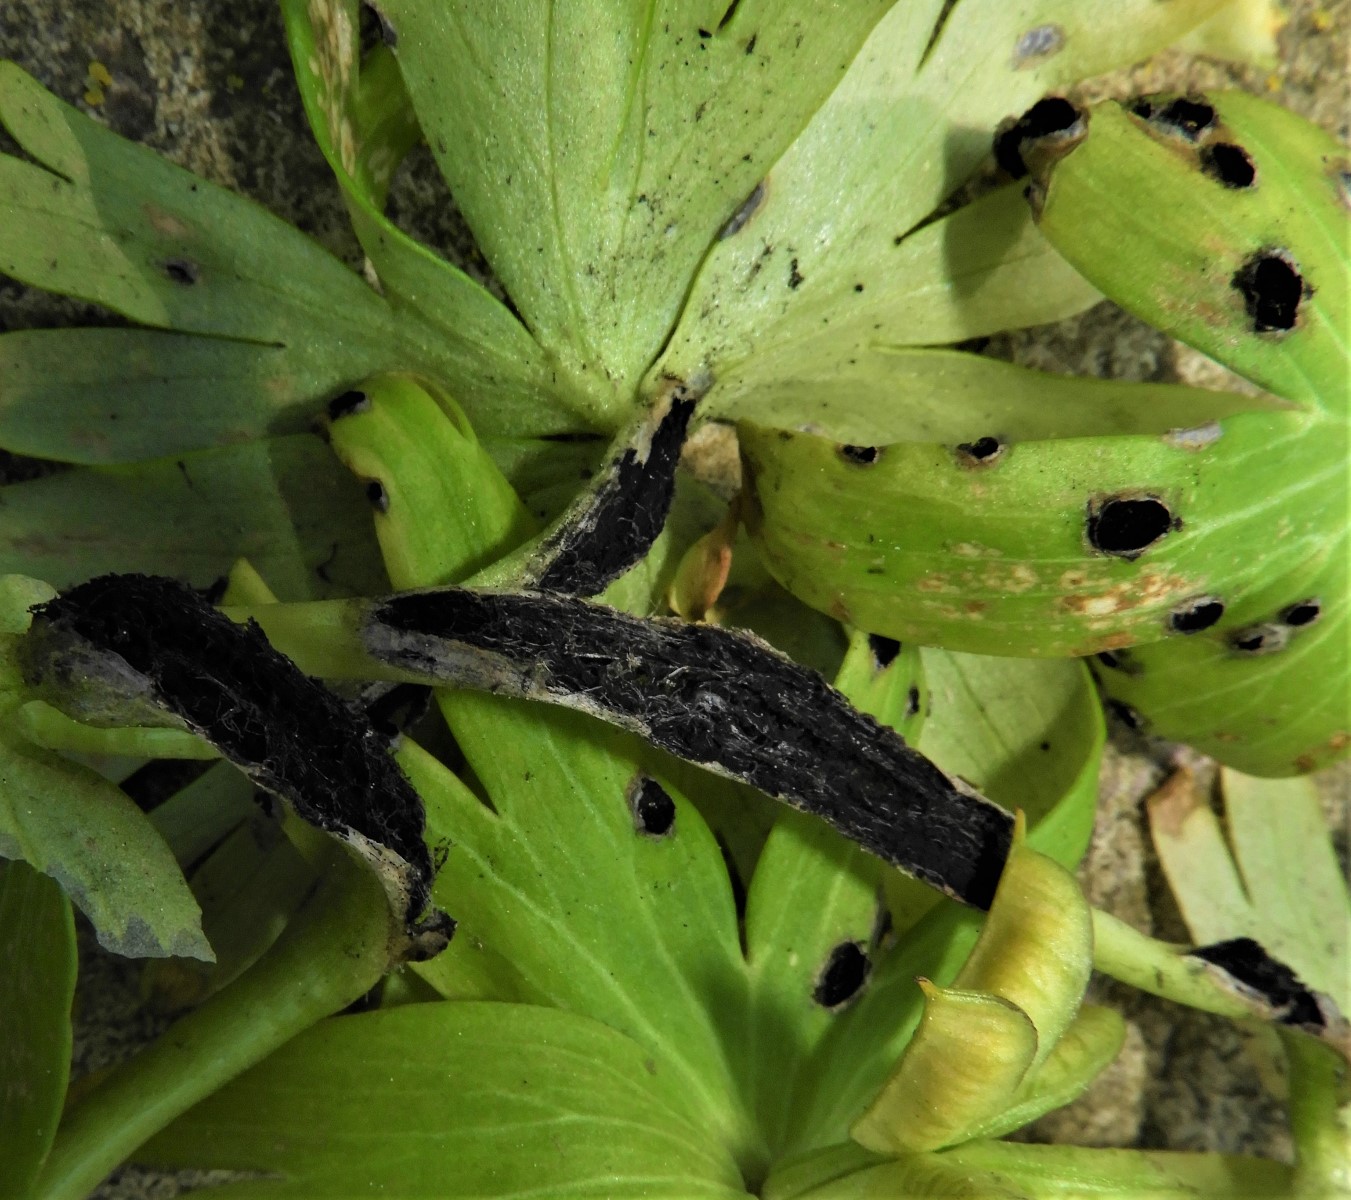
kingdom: Fungi
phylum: Basidiomycota
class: Ustilaginomycetes
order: Urocystidales
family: Urocystidaceae
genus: Urocystis
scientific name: Urocystis eranthidis
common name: erantis-brand
